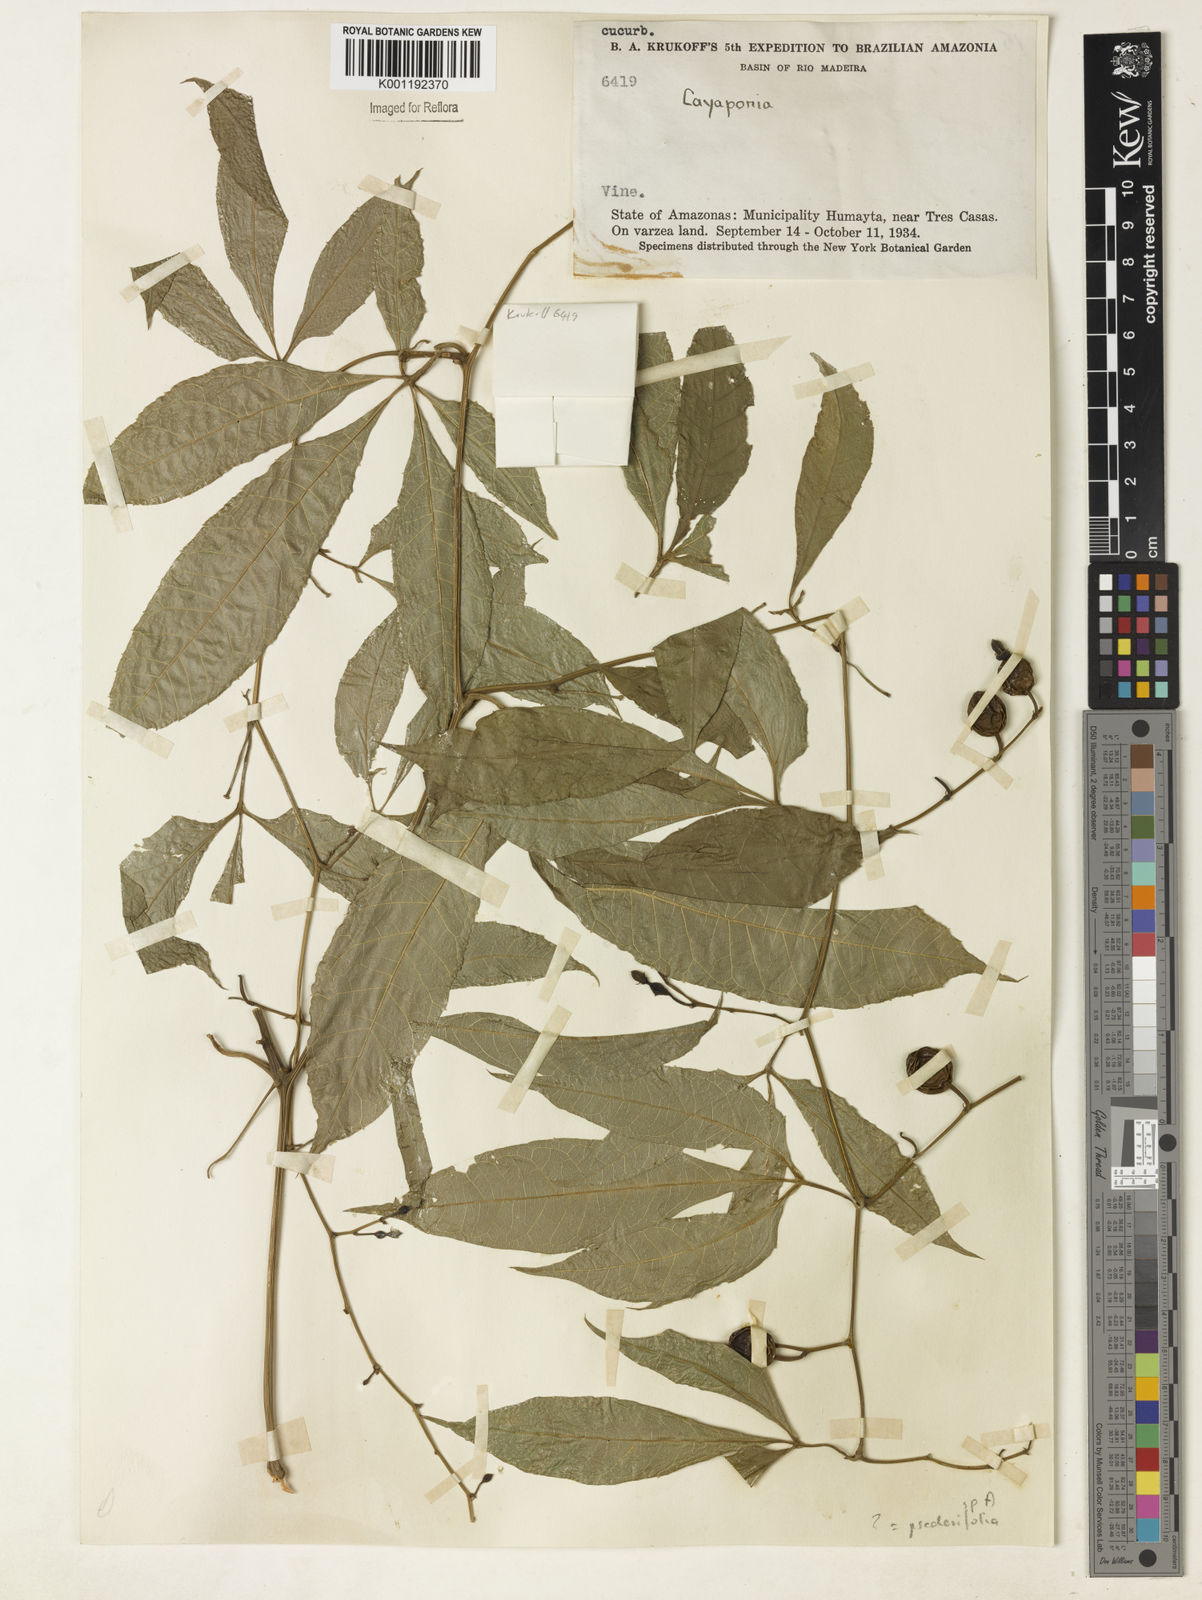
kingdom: Plantae
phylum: Tracheophyta
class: Magnoliopsida
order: Cucurbitales
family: Cucurbitaceae
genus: Cayaponia
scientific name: Cayaponia tubulosa
